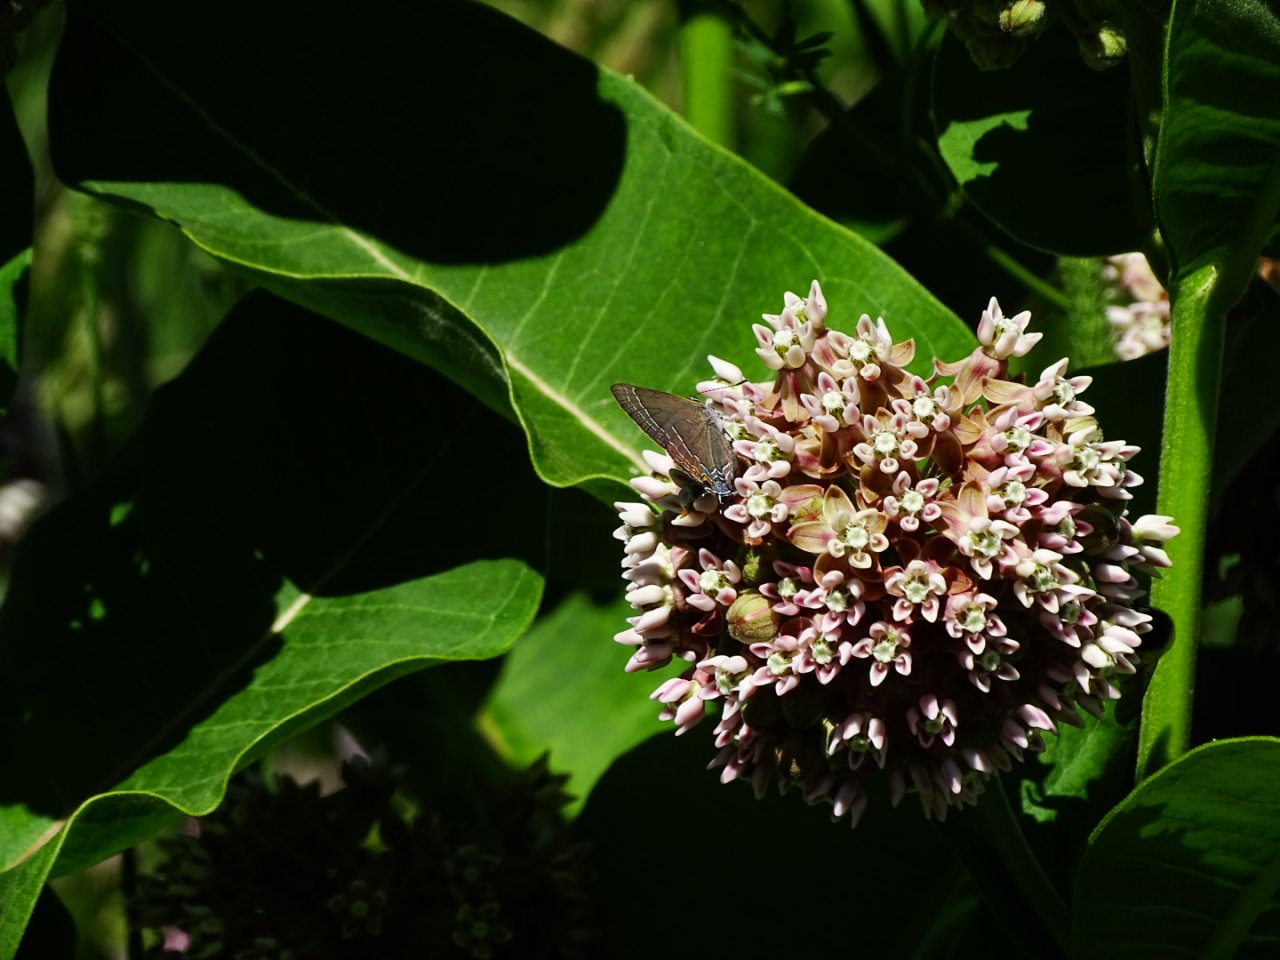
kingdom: Animalia
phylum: Arthropoda
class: Insecta
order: Lepidoptera
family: Lycaenidae
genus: Fixsenia
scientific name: Fixsenia favonius
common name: Oak Hairstreak
